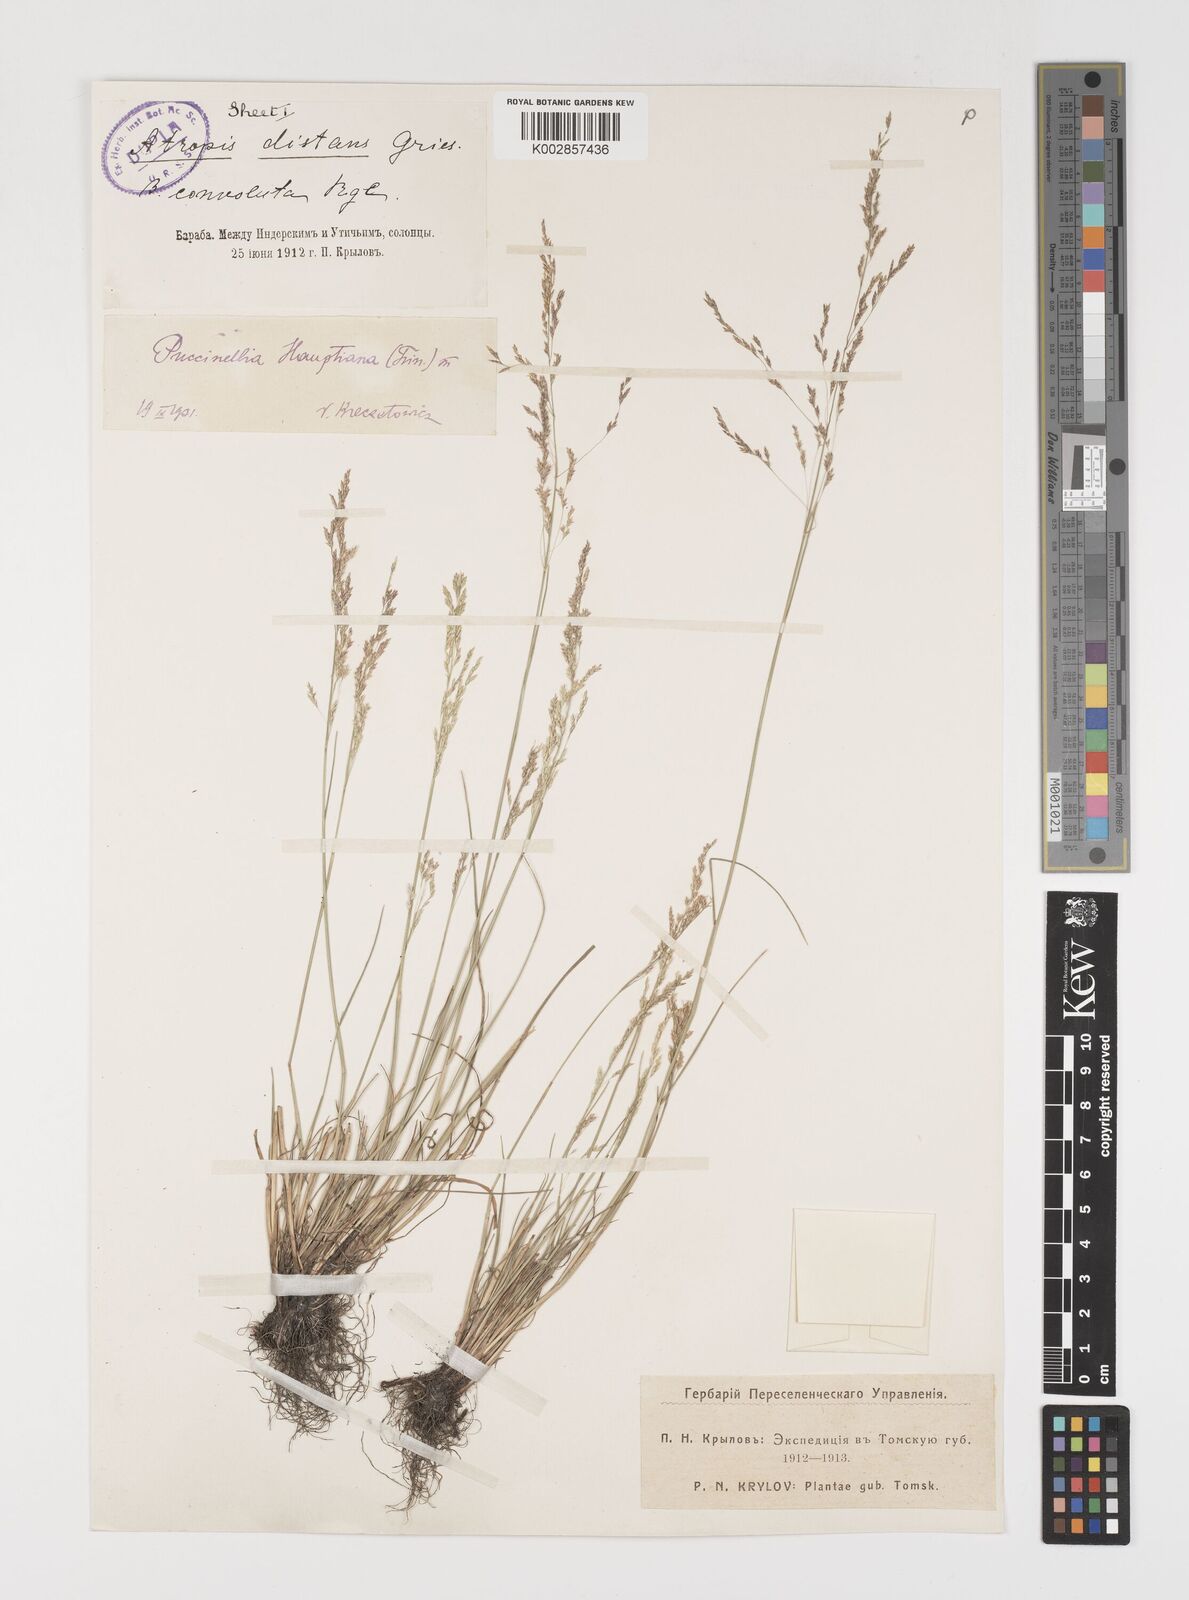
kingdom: Plantae
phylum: Tracheophyta
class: Liliopsida
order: Poales
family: Poaceae
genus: Puccinellia
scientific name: Puccinellia distans
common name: Weeping alkaligrass
